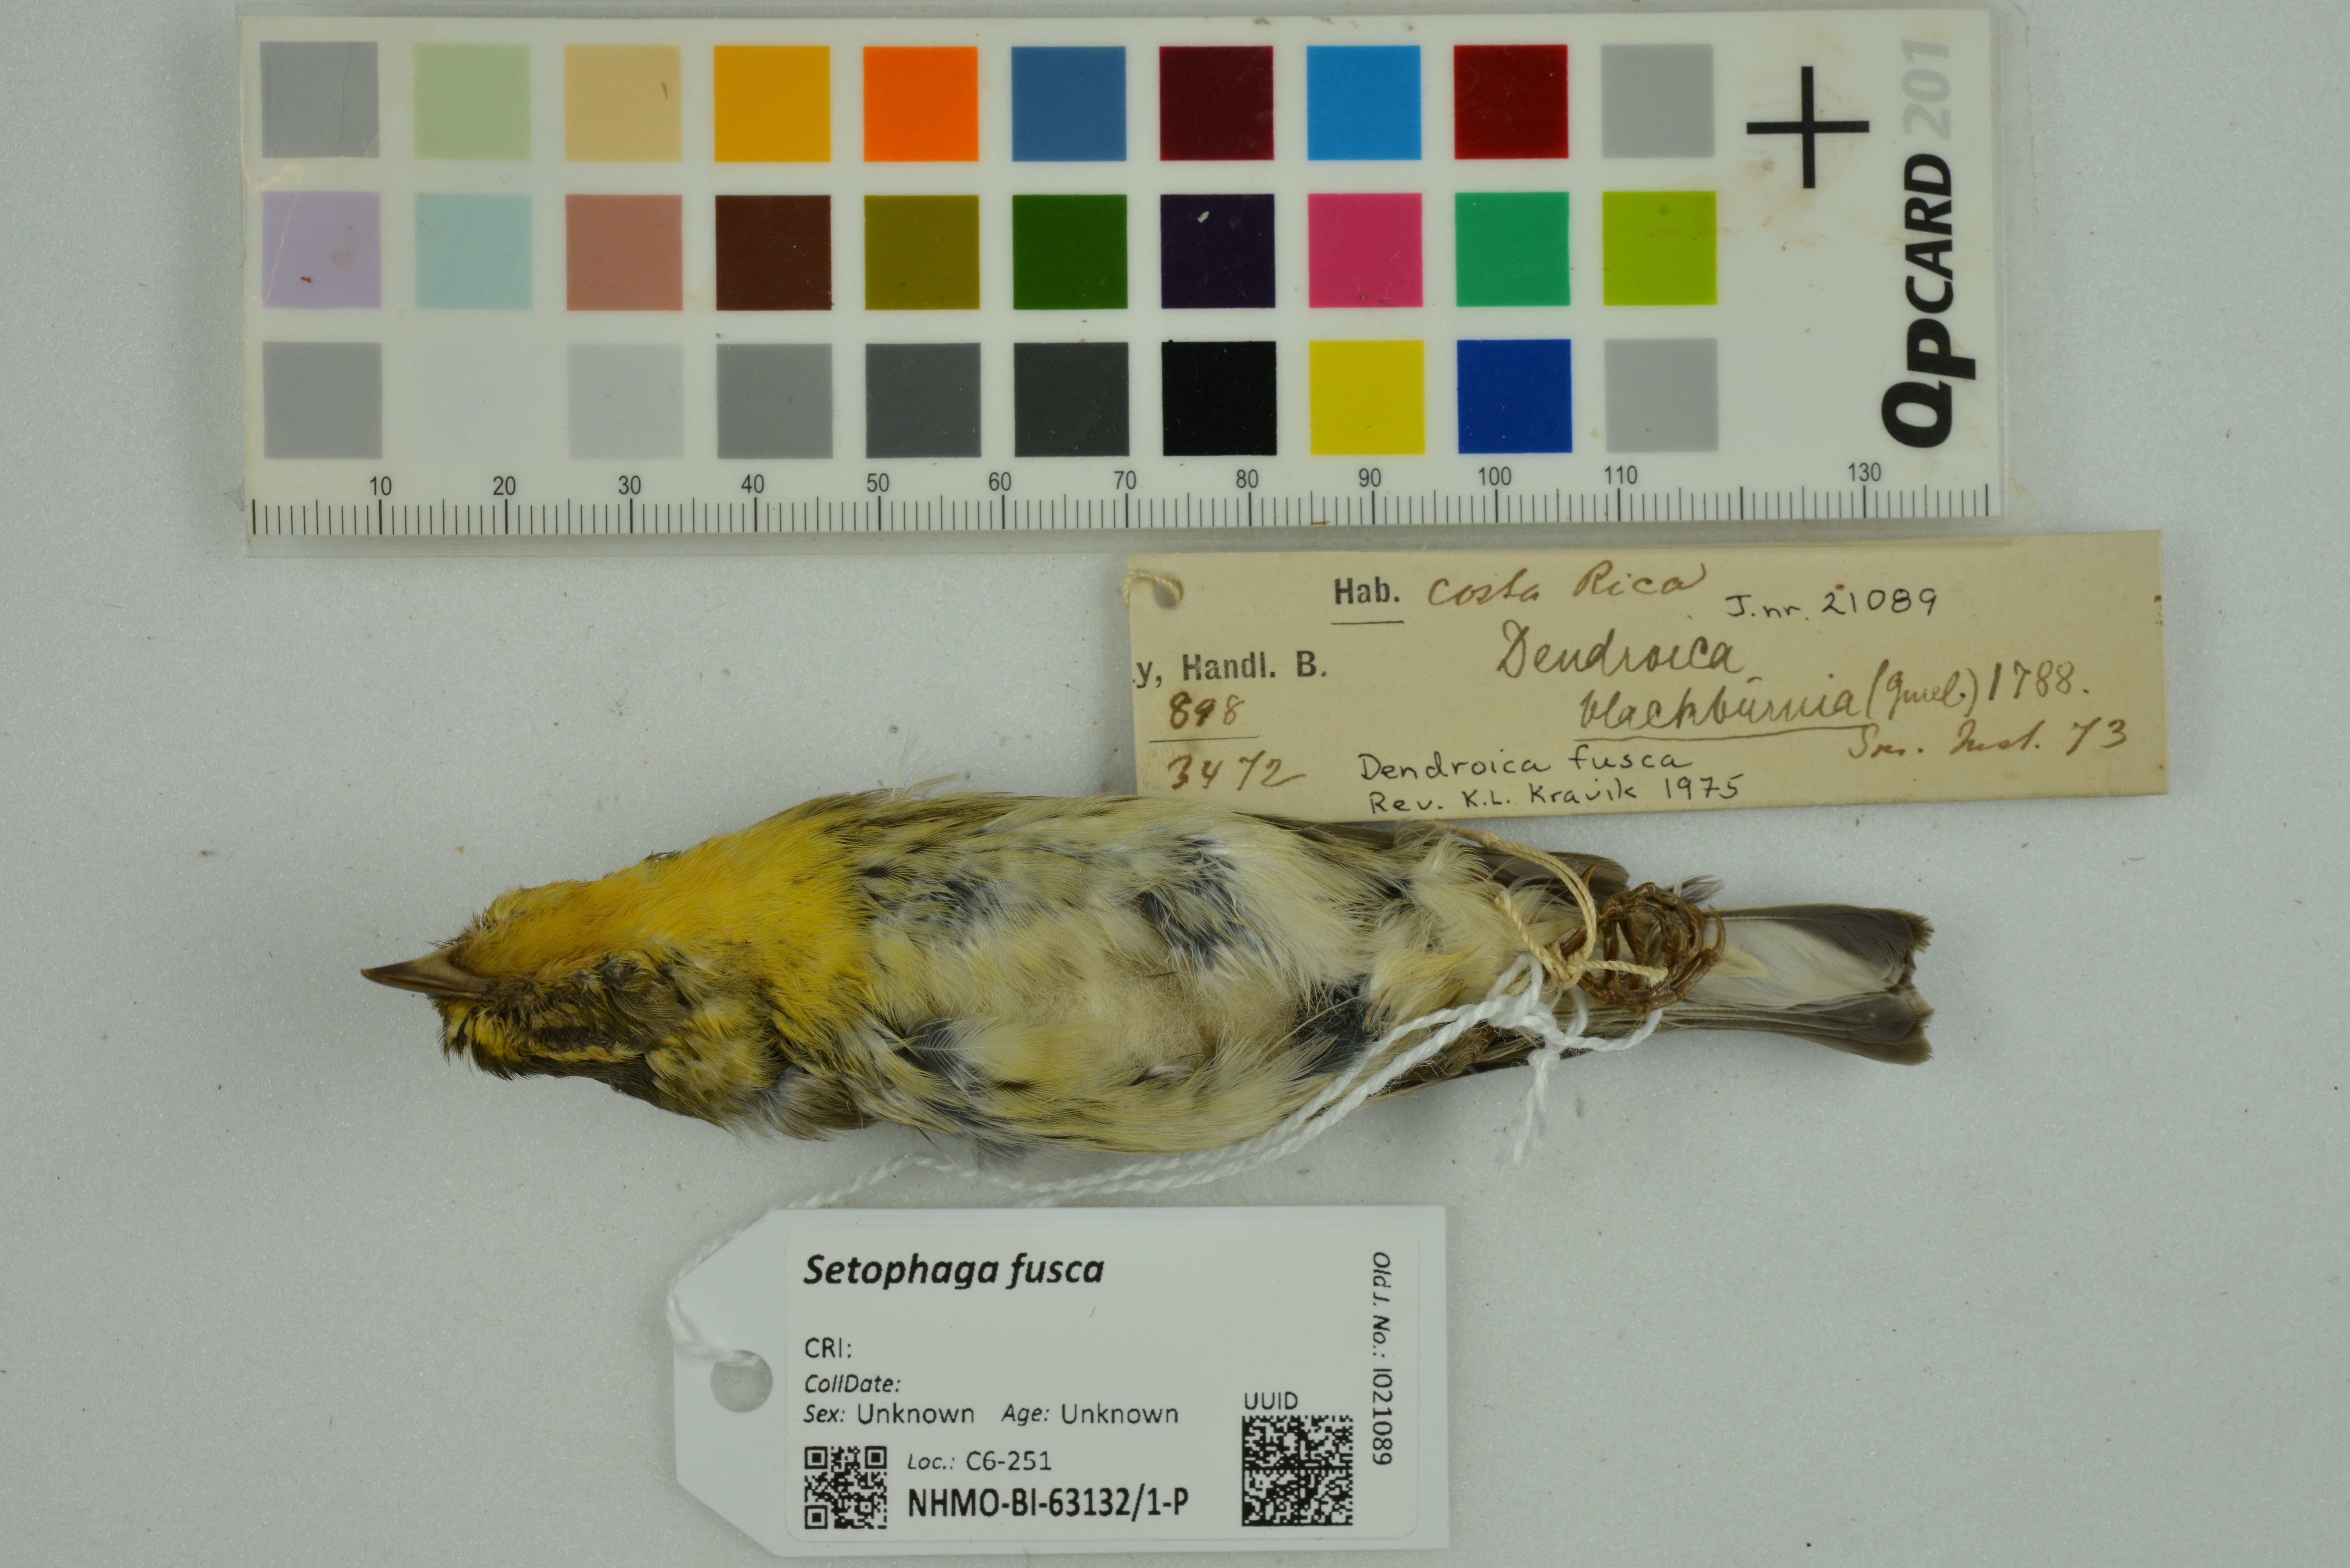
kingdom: Animalia
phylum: Chordata
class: Aves
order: Passeriformes
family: Parulidae
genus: Setophaga
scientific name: Setophaga fusca
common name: Blackburnian warbler
